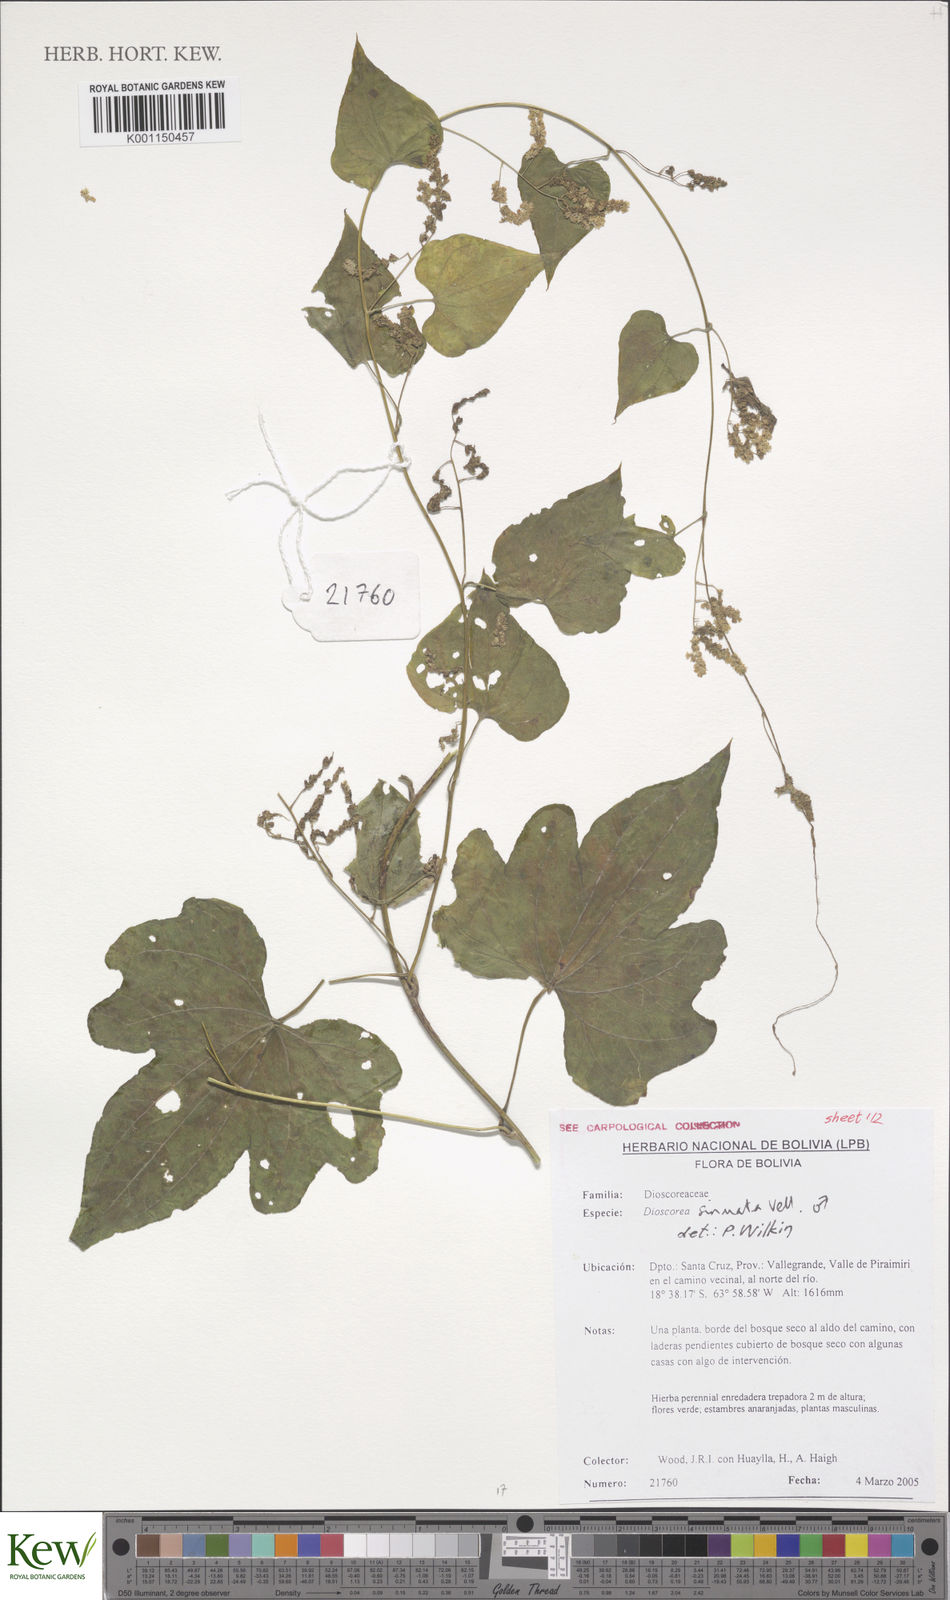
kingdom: Plantae
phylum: Tracheophyta
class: Liliopsida
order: Dioscoreales
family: Dioscoreaceae
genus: Dioscorea
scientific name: Dioscorea sinuata
